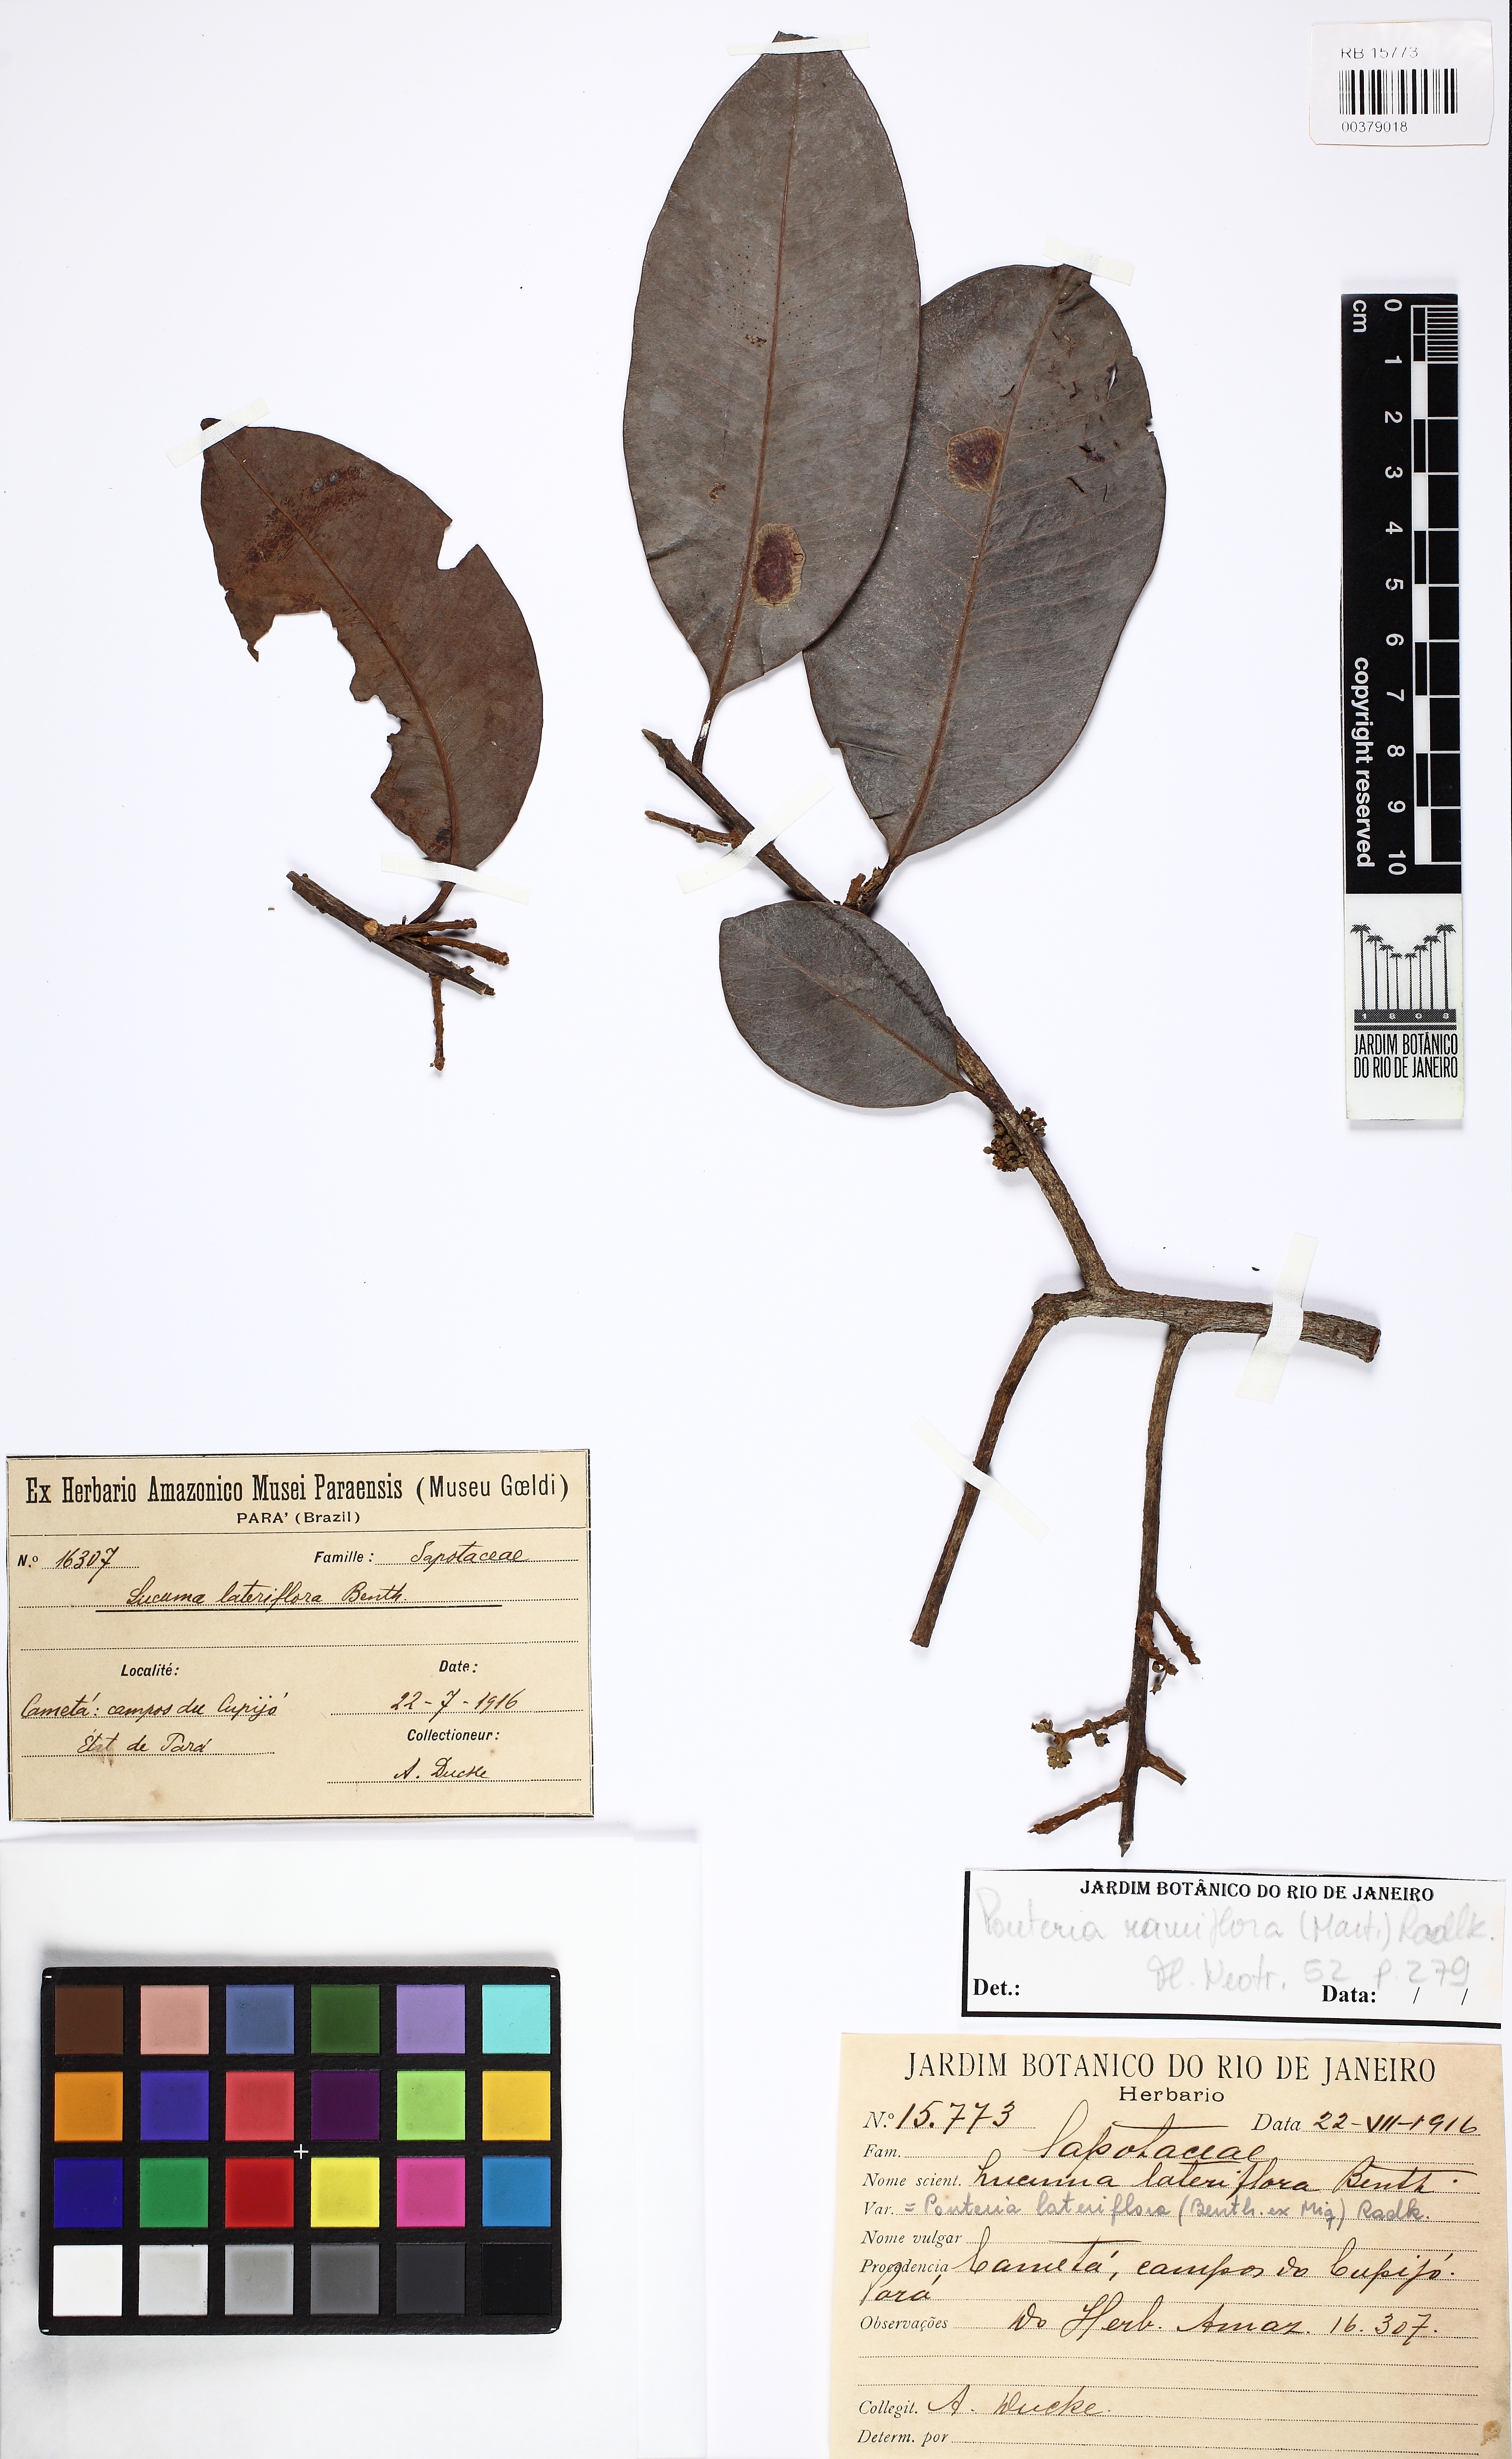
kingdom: Plantae
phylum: Tracheophyta
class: Magnoliopsida
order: Ericales
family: Sapotaceae
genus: Pouteria
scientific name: Pouteria ramiflora
